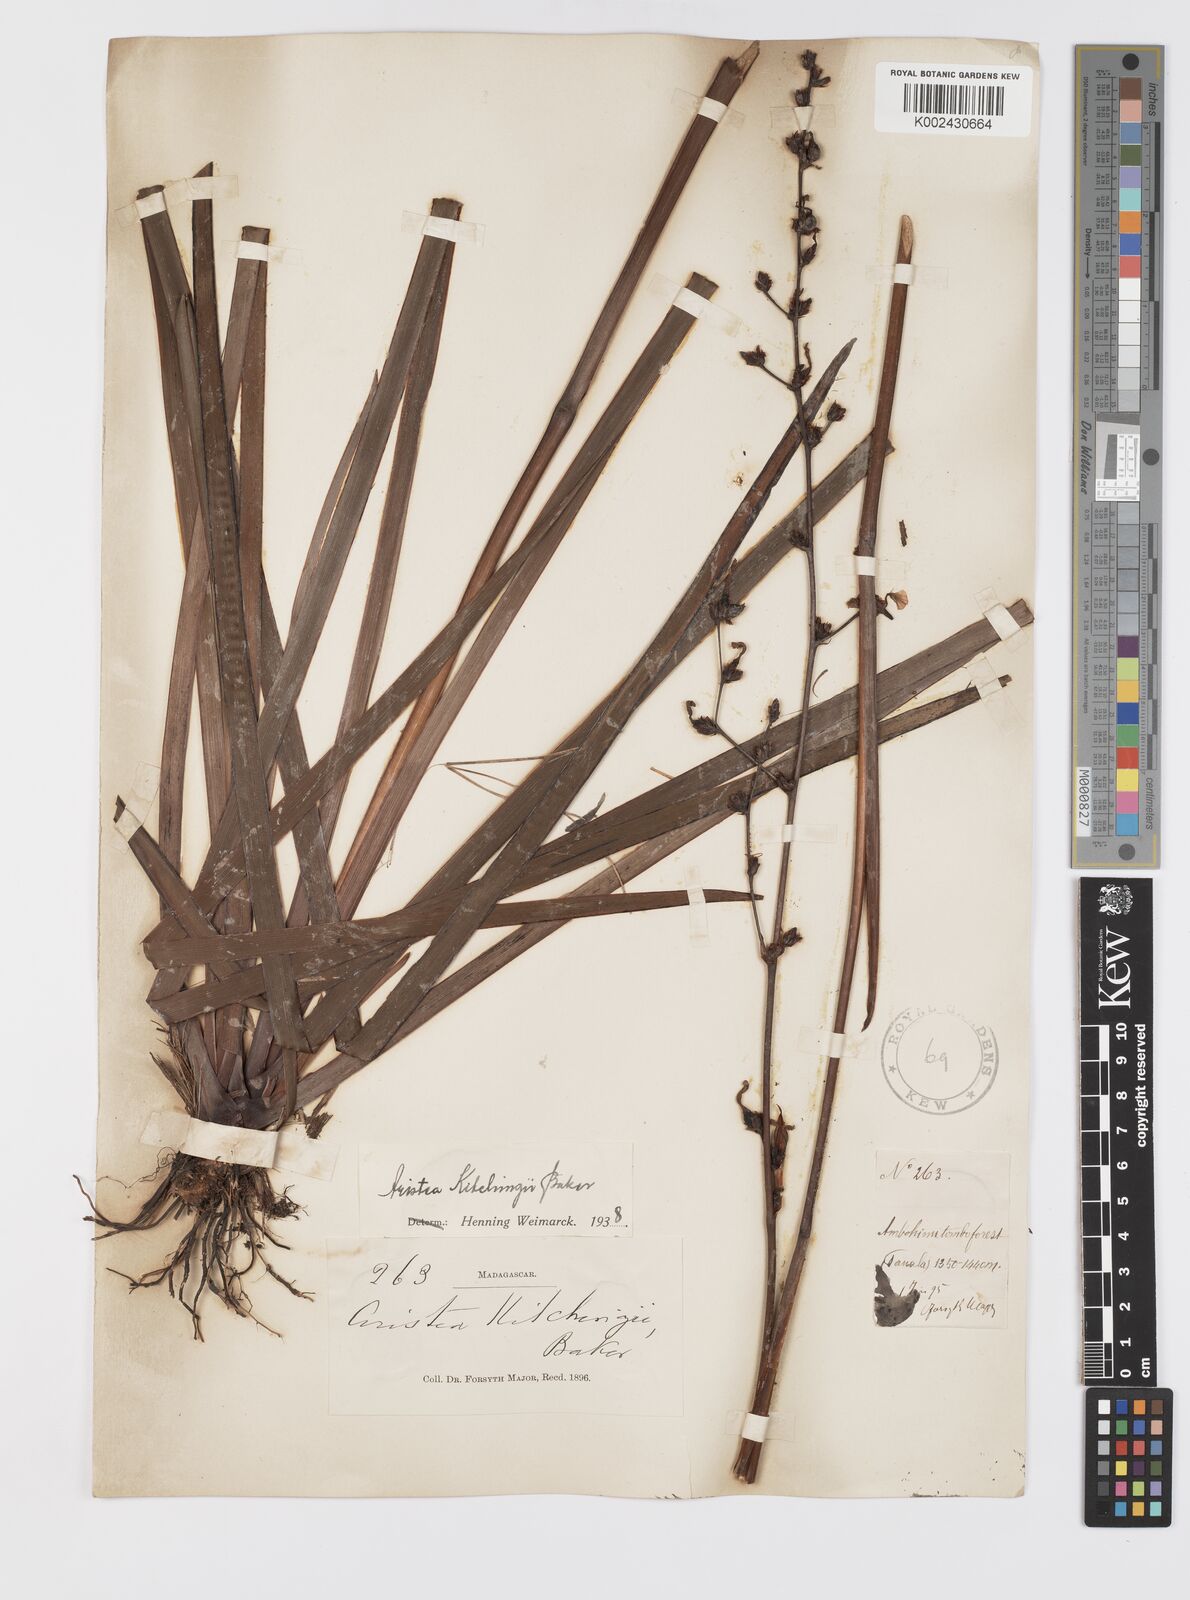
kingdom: Plantae
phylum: Tracheophyta
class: Liliopsida
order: Asparagales
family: Iridaceae
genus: Aristea
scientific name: Aristea kitchingii
